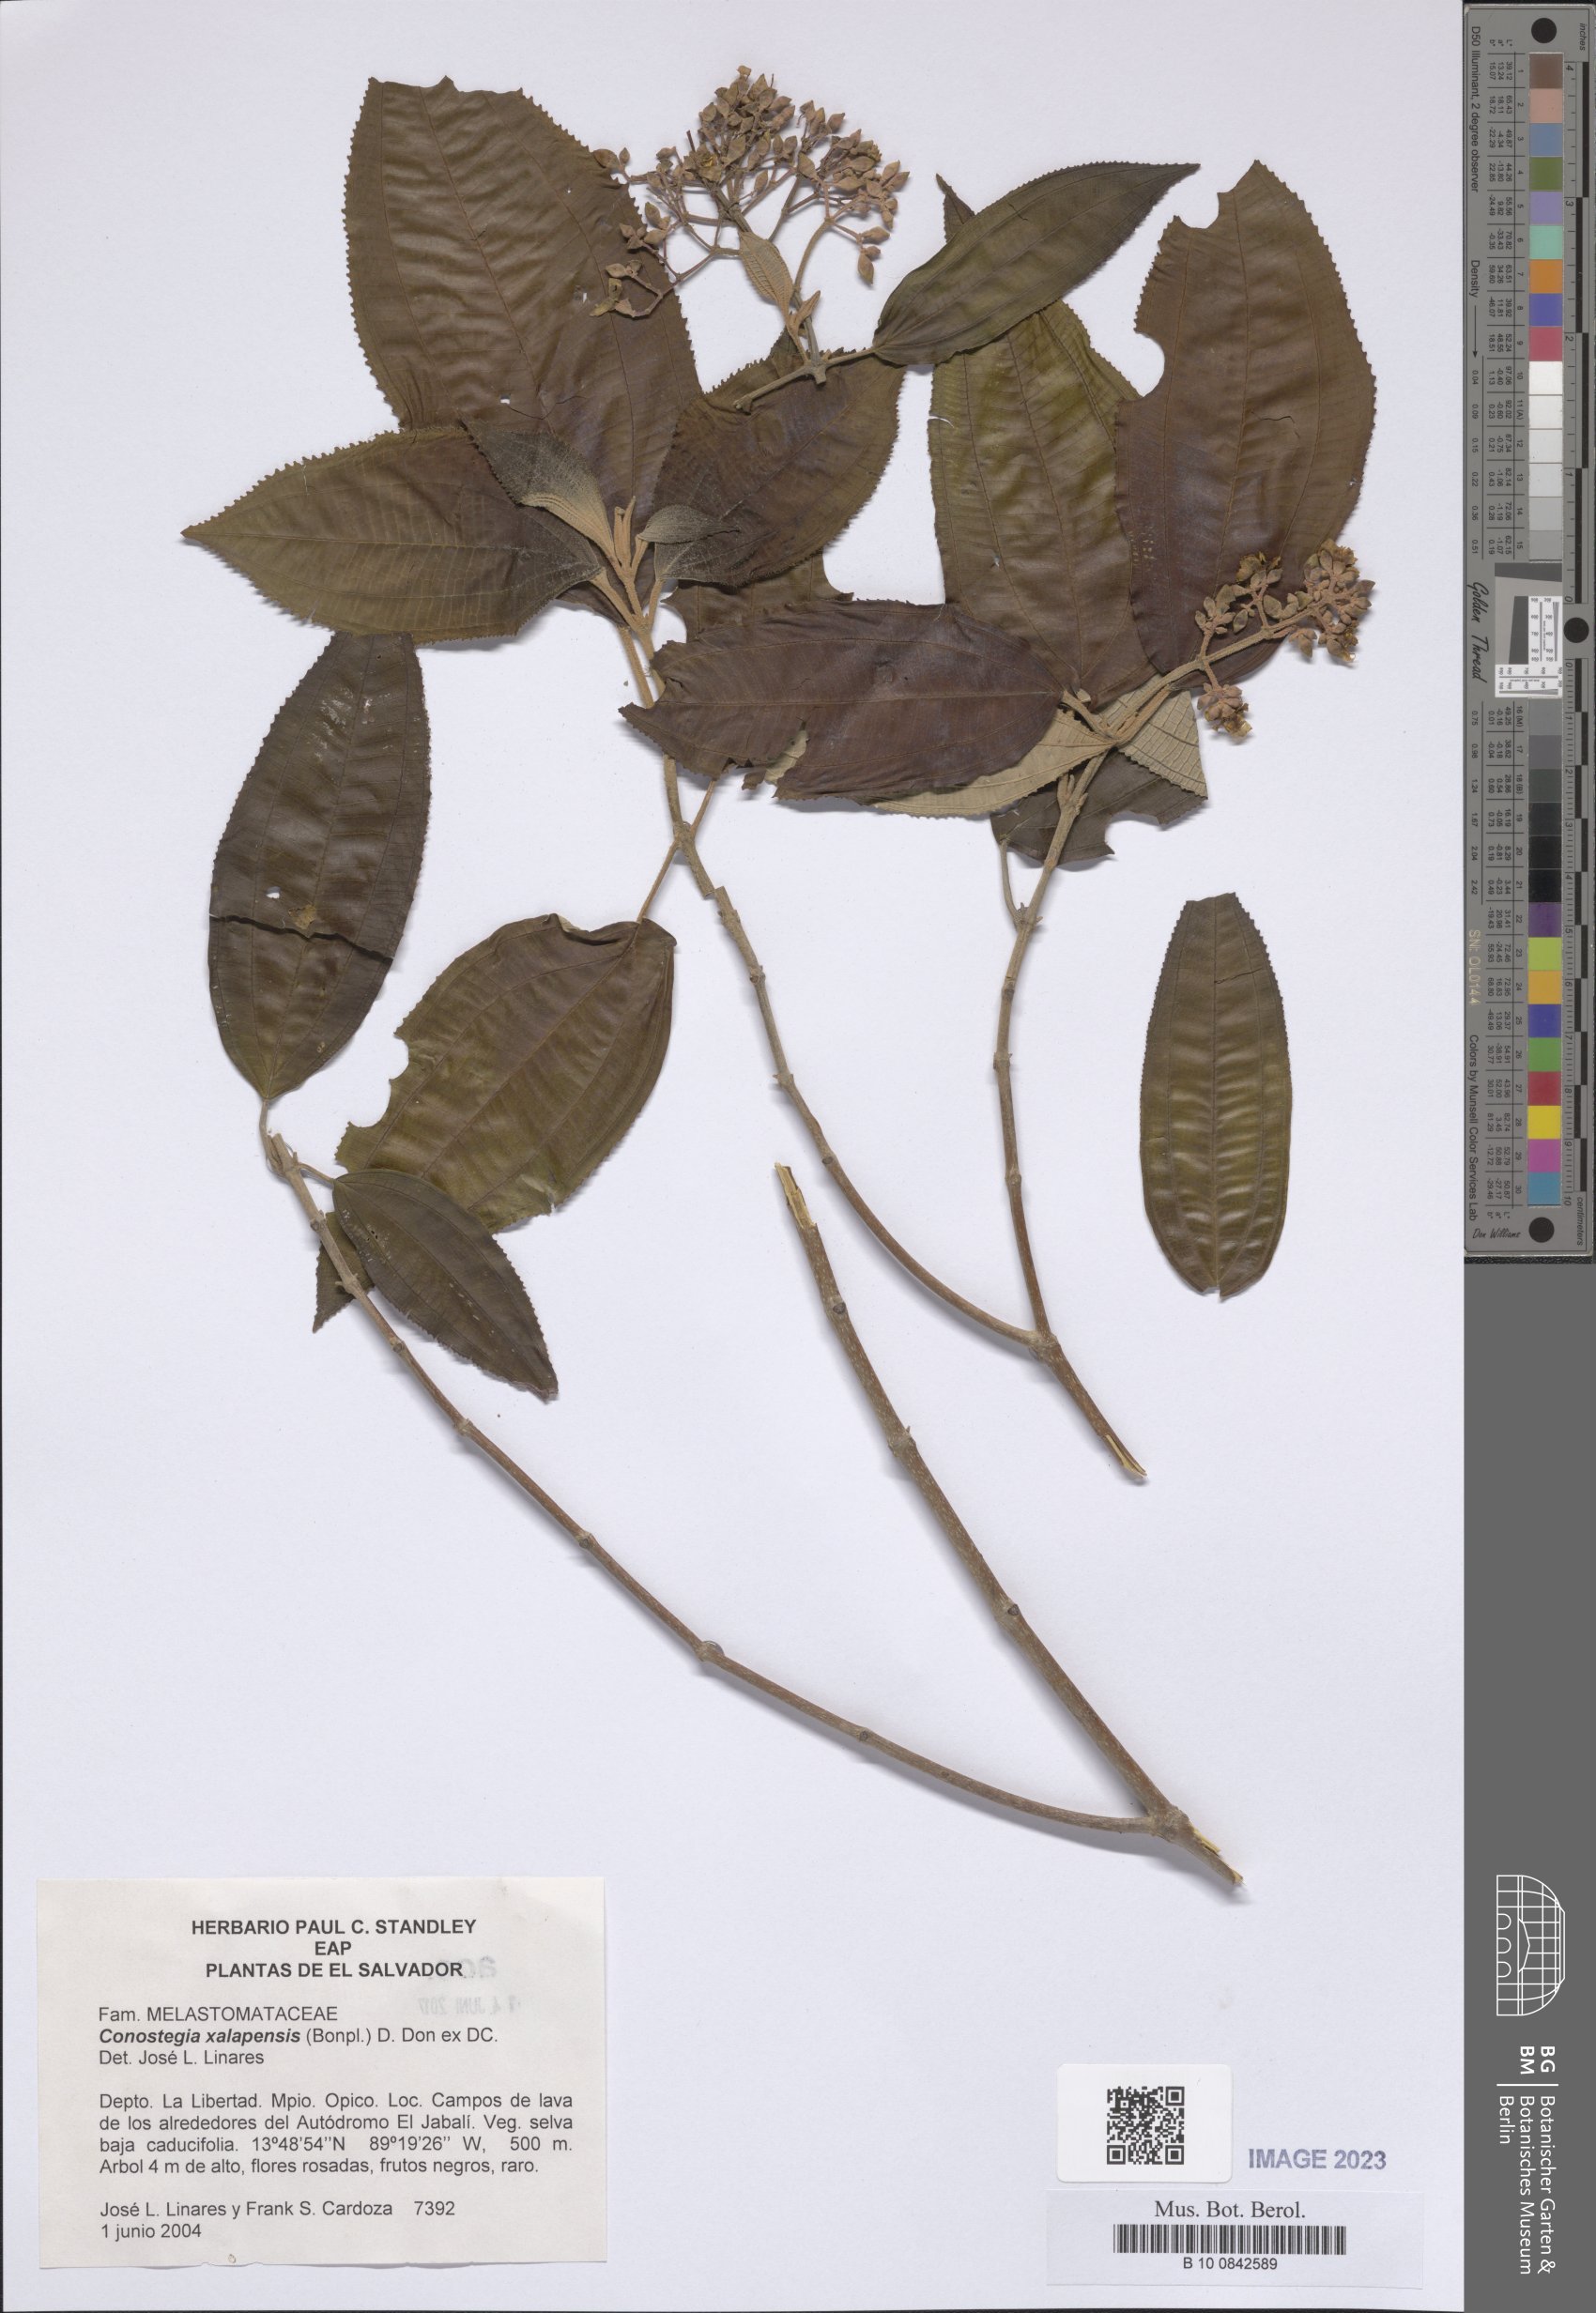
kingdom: Plantae
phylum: Tracheophyta
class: Magnoliopsida
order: Myrtales
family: Melastomataceae
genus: Miconia
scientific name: Miconia xalapensis
